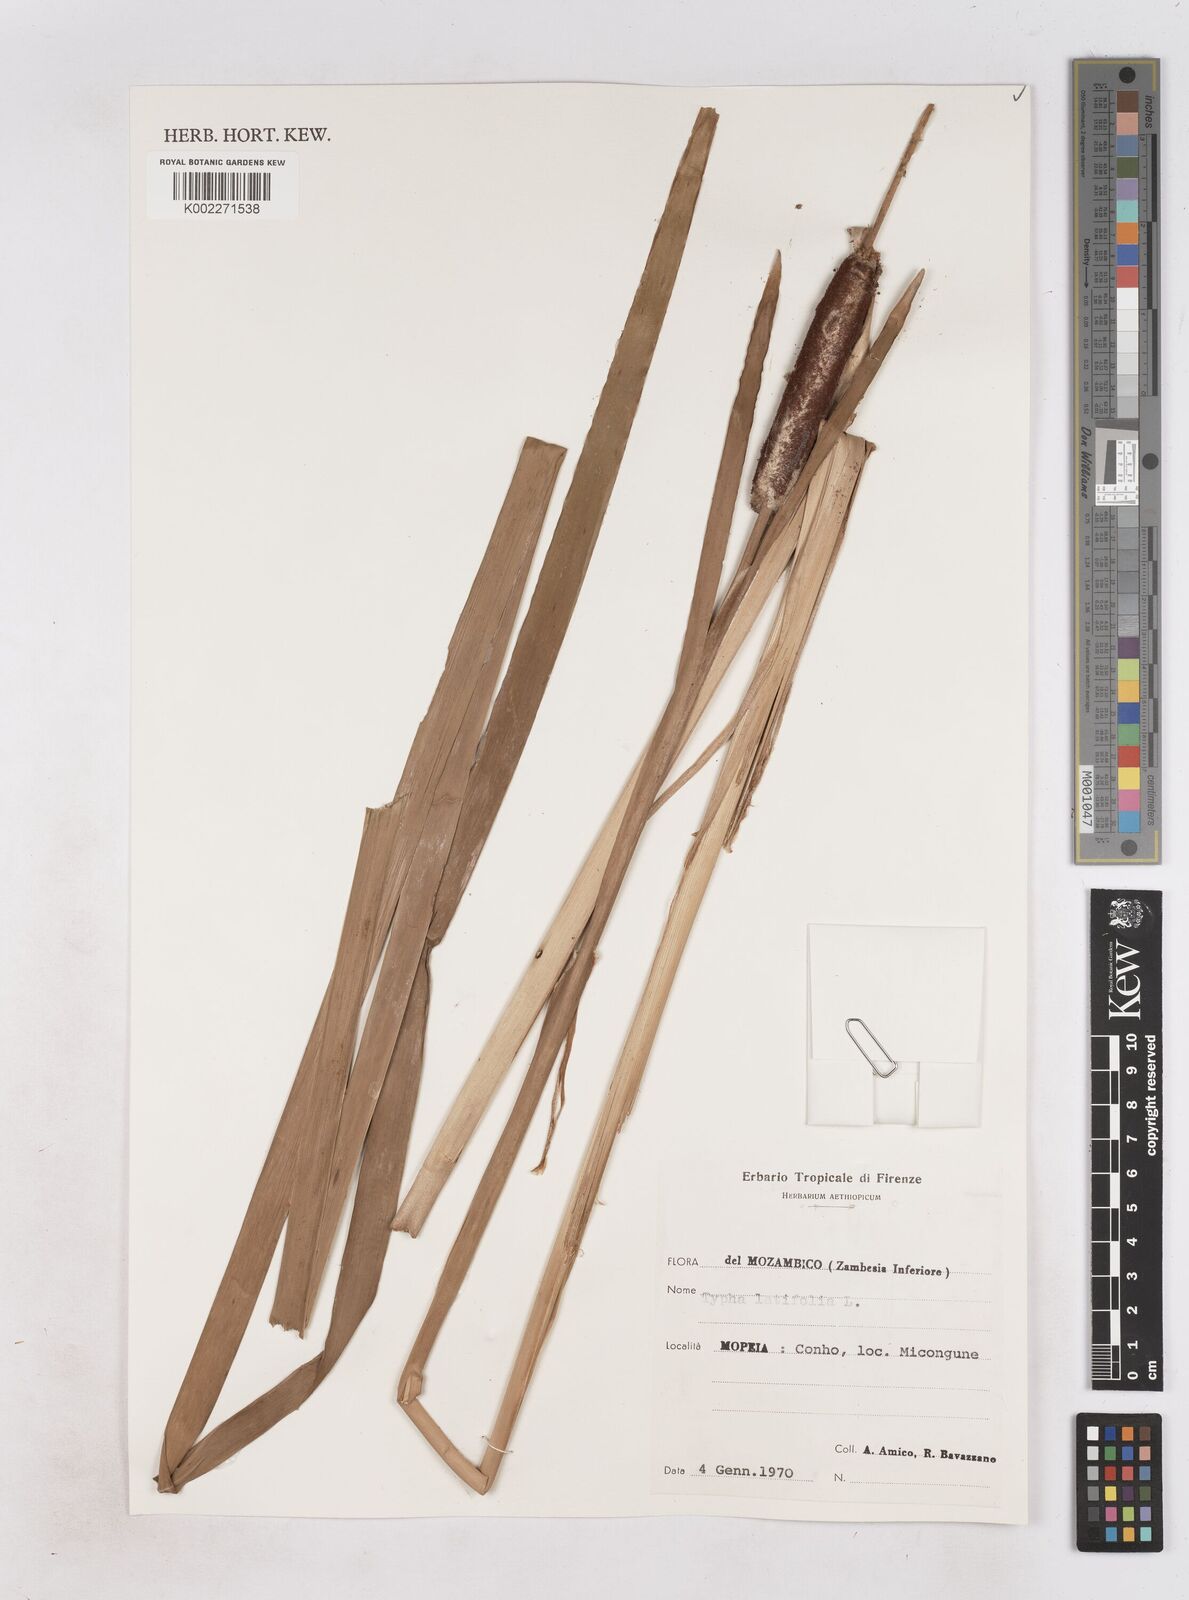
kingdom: Plantae
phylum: Tracheophyta
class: Liliopsida
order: Poales
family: Typhaceae
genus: Typha
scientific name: Typha latifolia
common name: Broadleaf cattail
